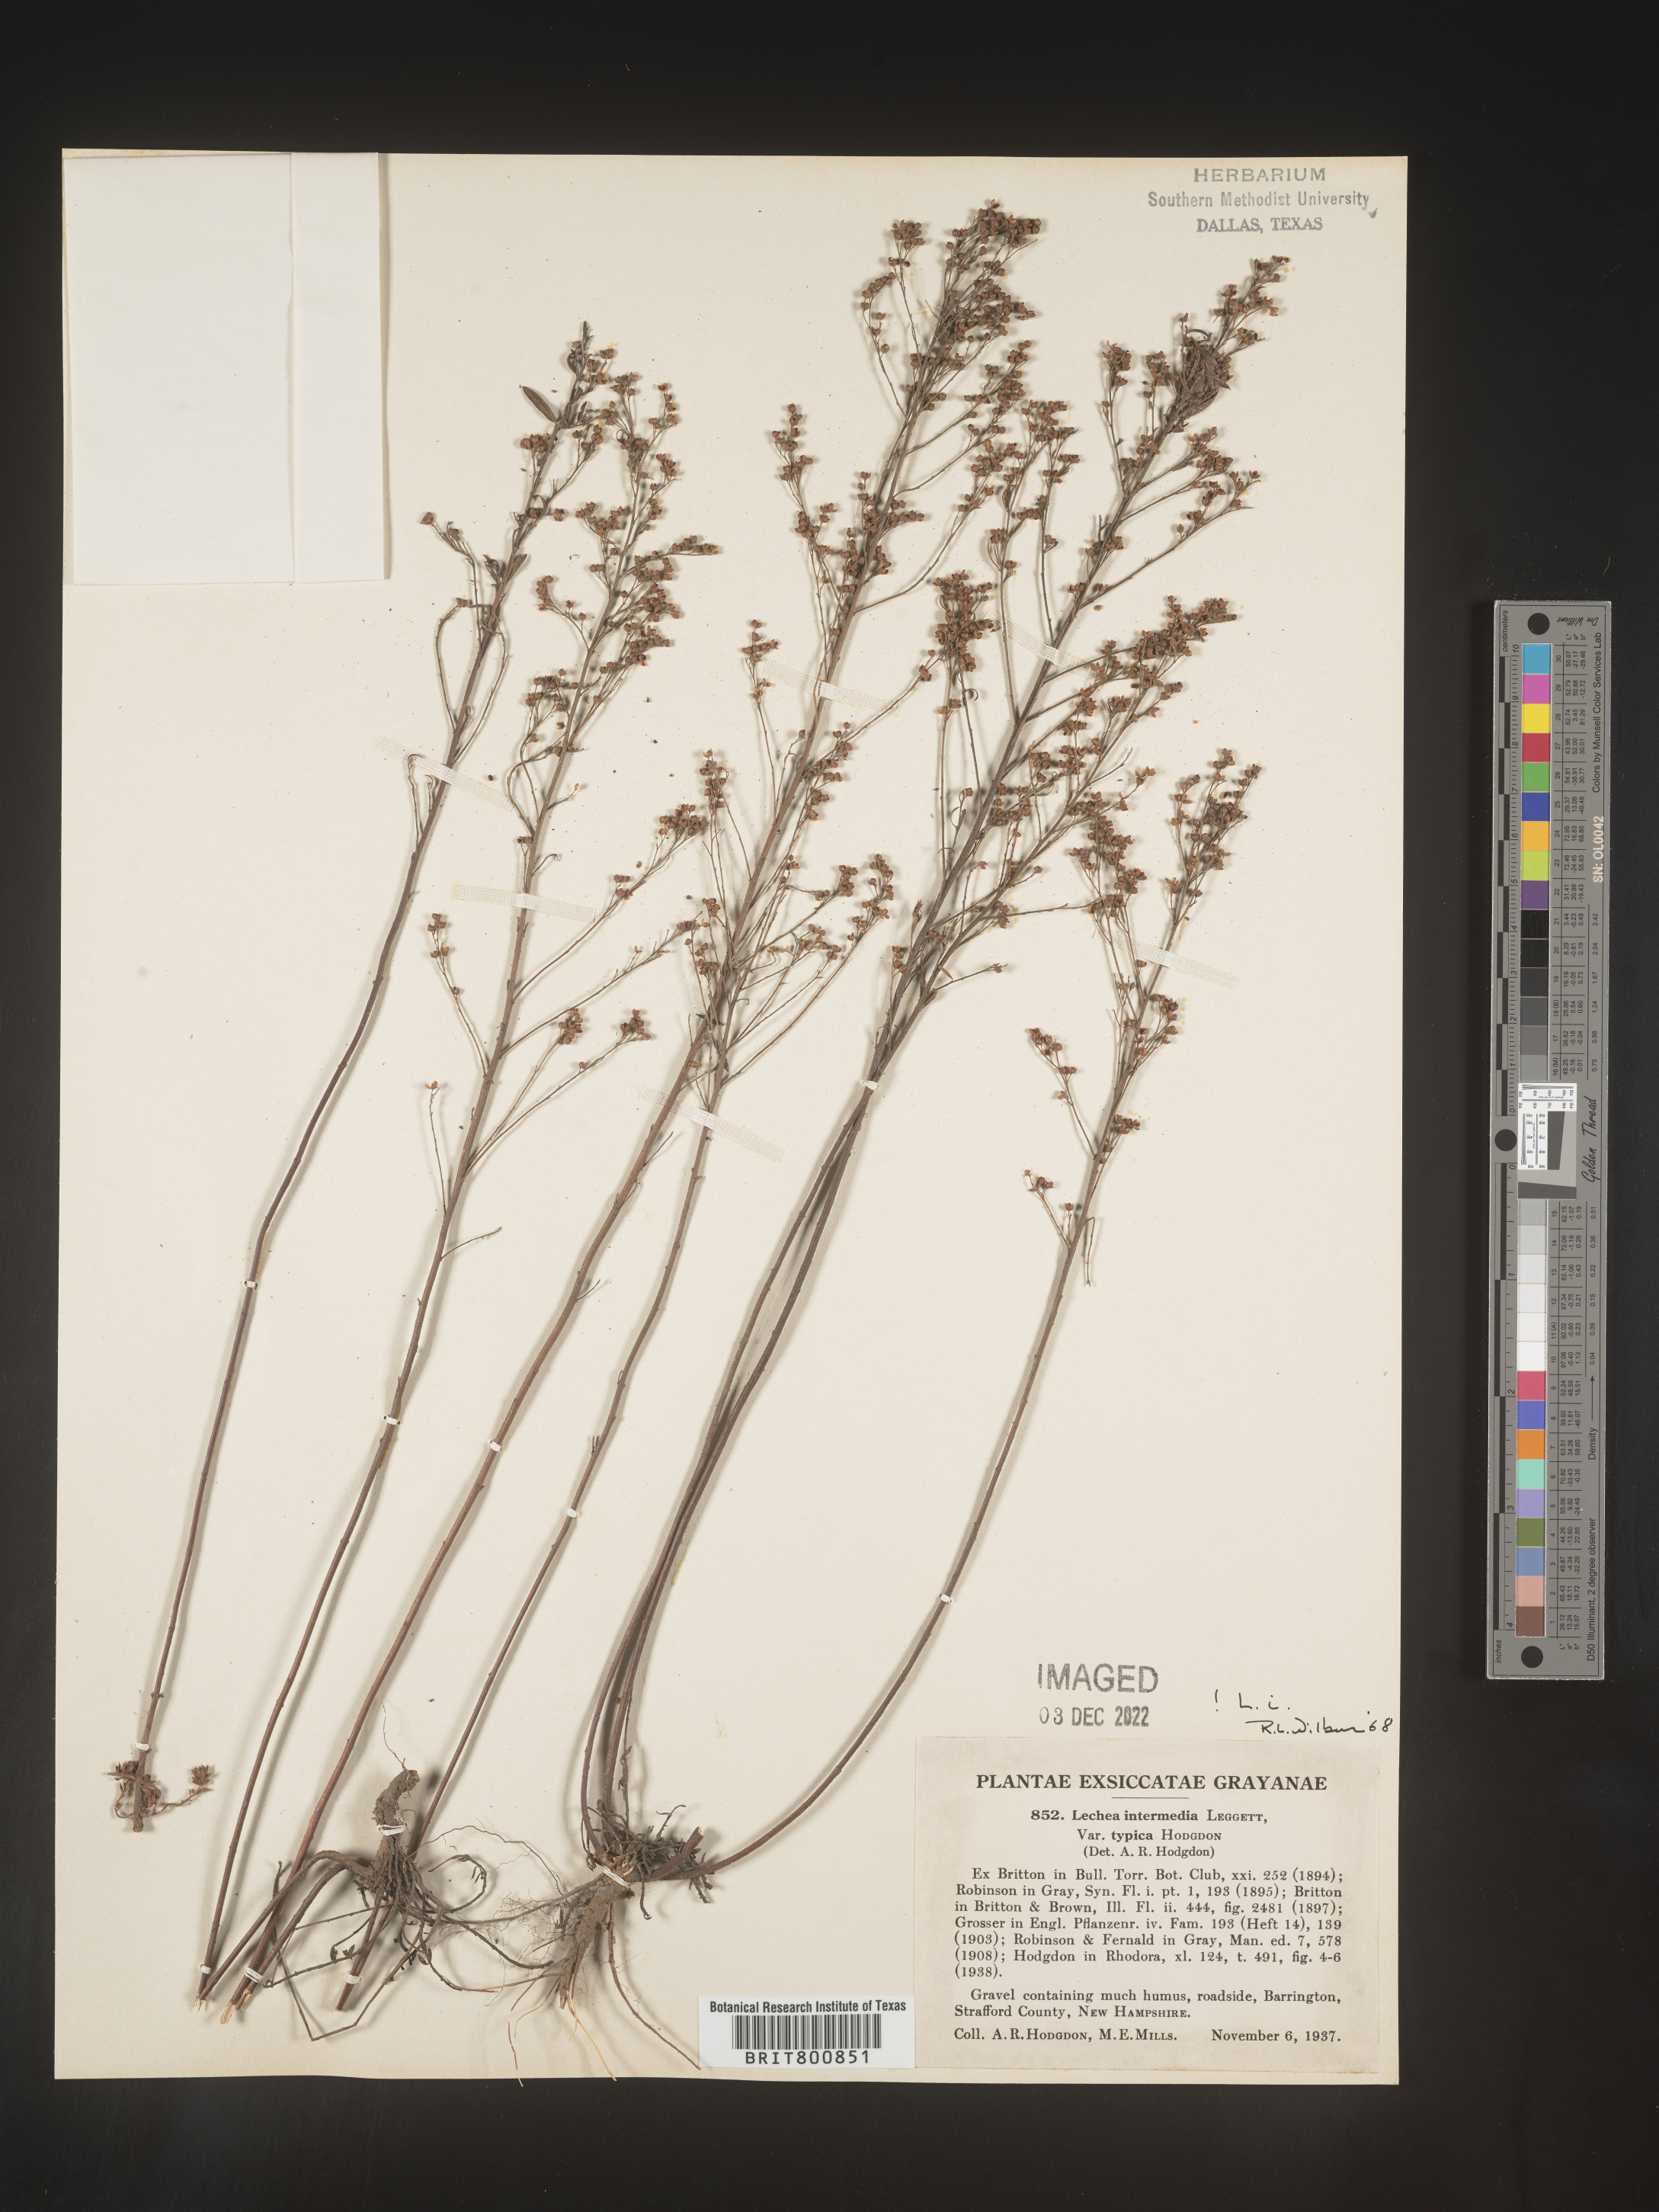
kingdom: Plantae
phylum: Tracheophyta
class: Magnoliopsida
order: Malvales
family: Cistaceae
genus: Lechea
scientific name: Lechea intermedia
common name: Intermediate pinweed
